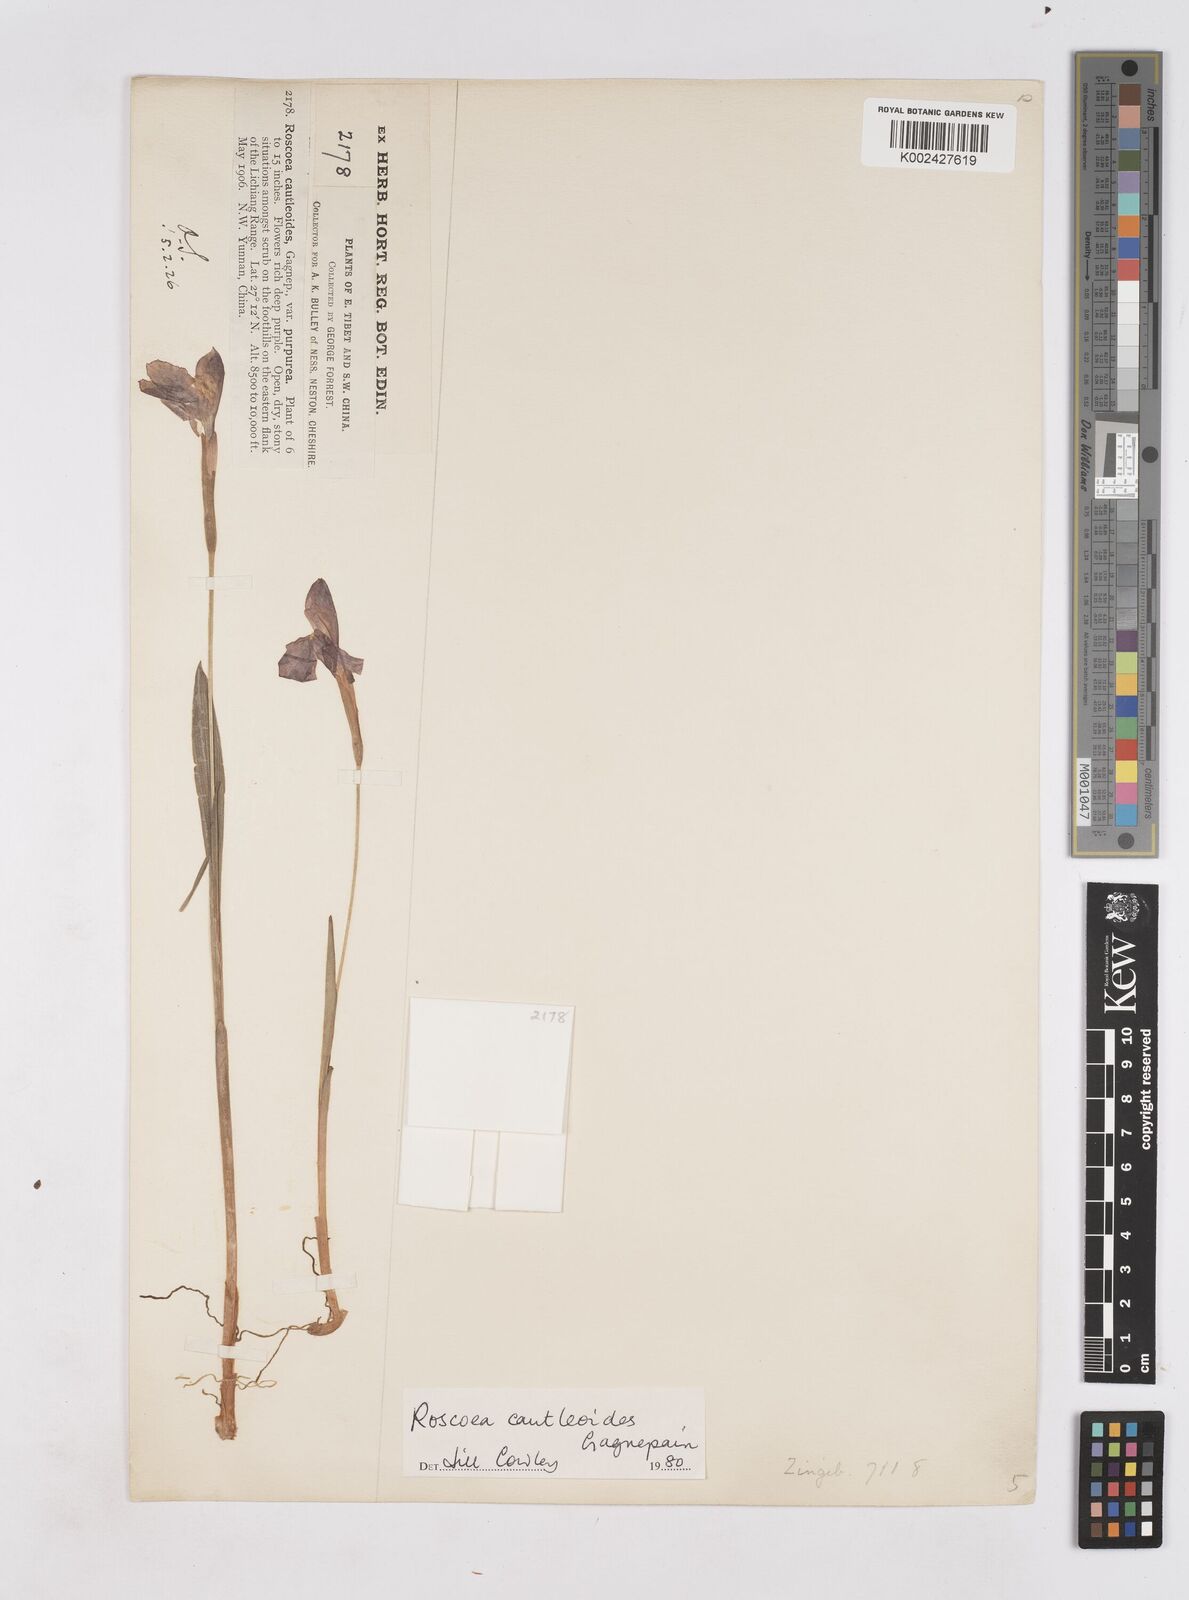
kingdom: Plantae
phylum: Tracheophyta
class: Liliopsida
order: Zingiberales
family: Zingiberaceae
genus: Roscoea
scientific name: Roscoea cautleyoides
